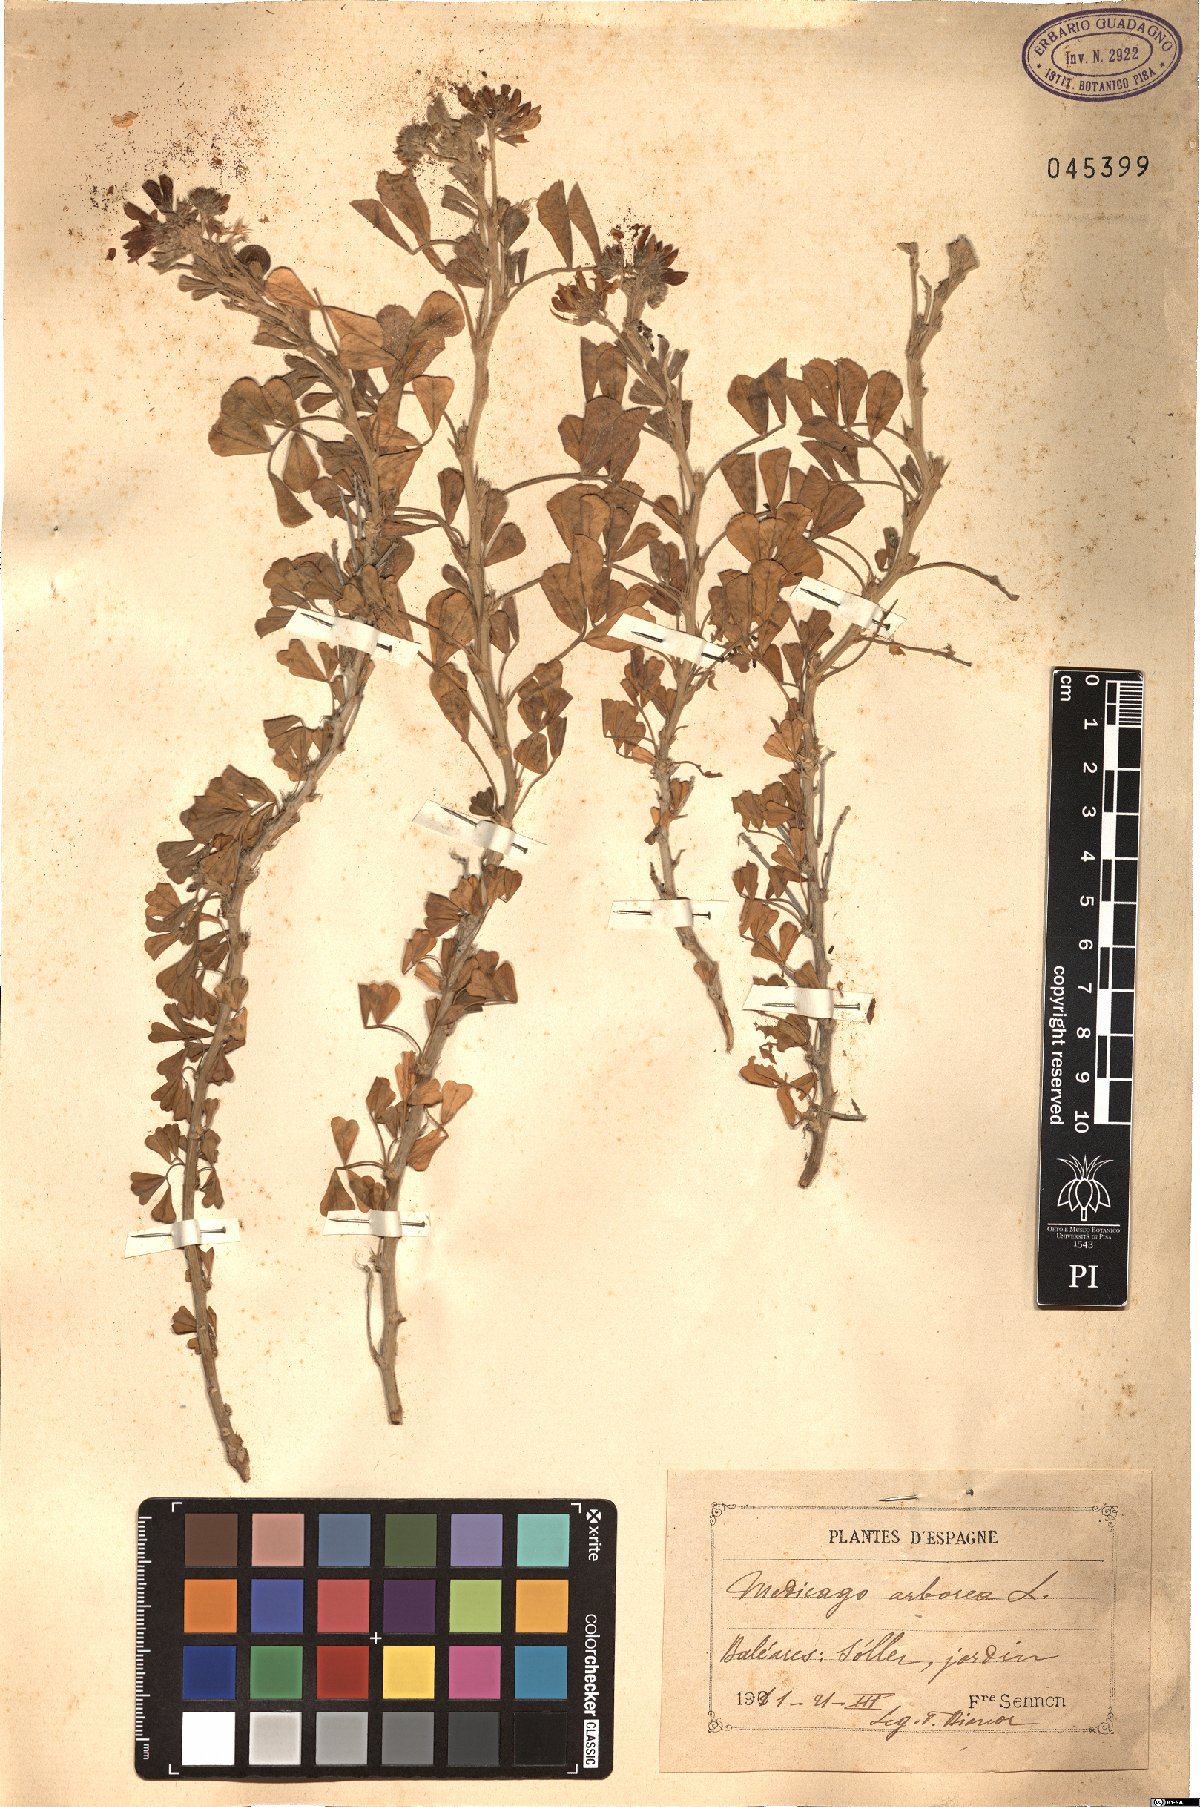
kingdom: Plantae
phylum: Tracheophyta
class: Magnoliopsida
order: Fabales
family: Fabaceae
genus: Medicago
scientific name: Medicago arborea
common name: Moon trefoil
